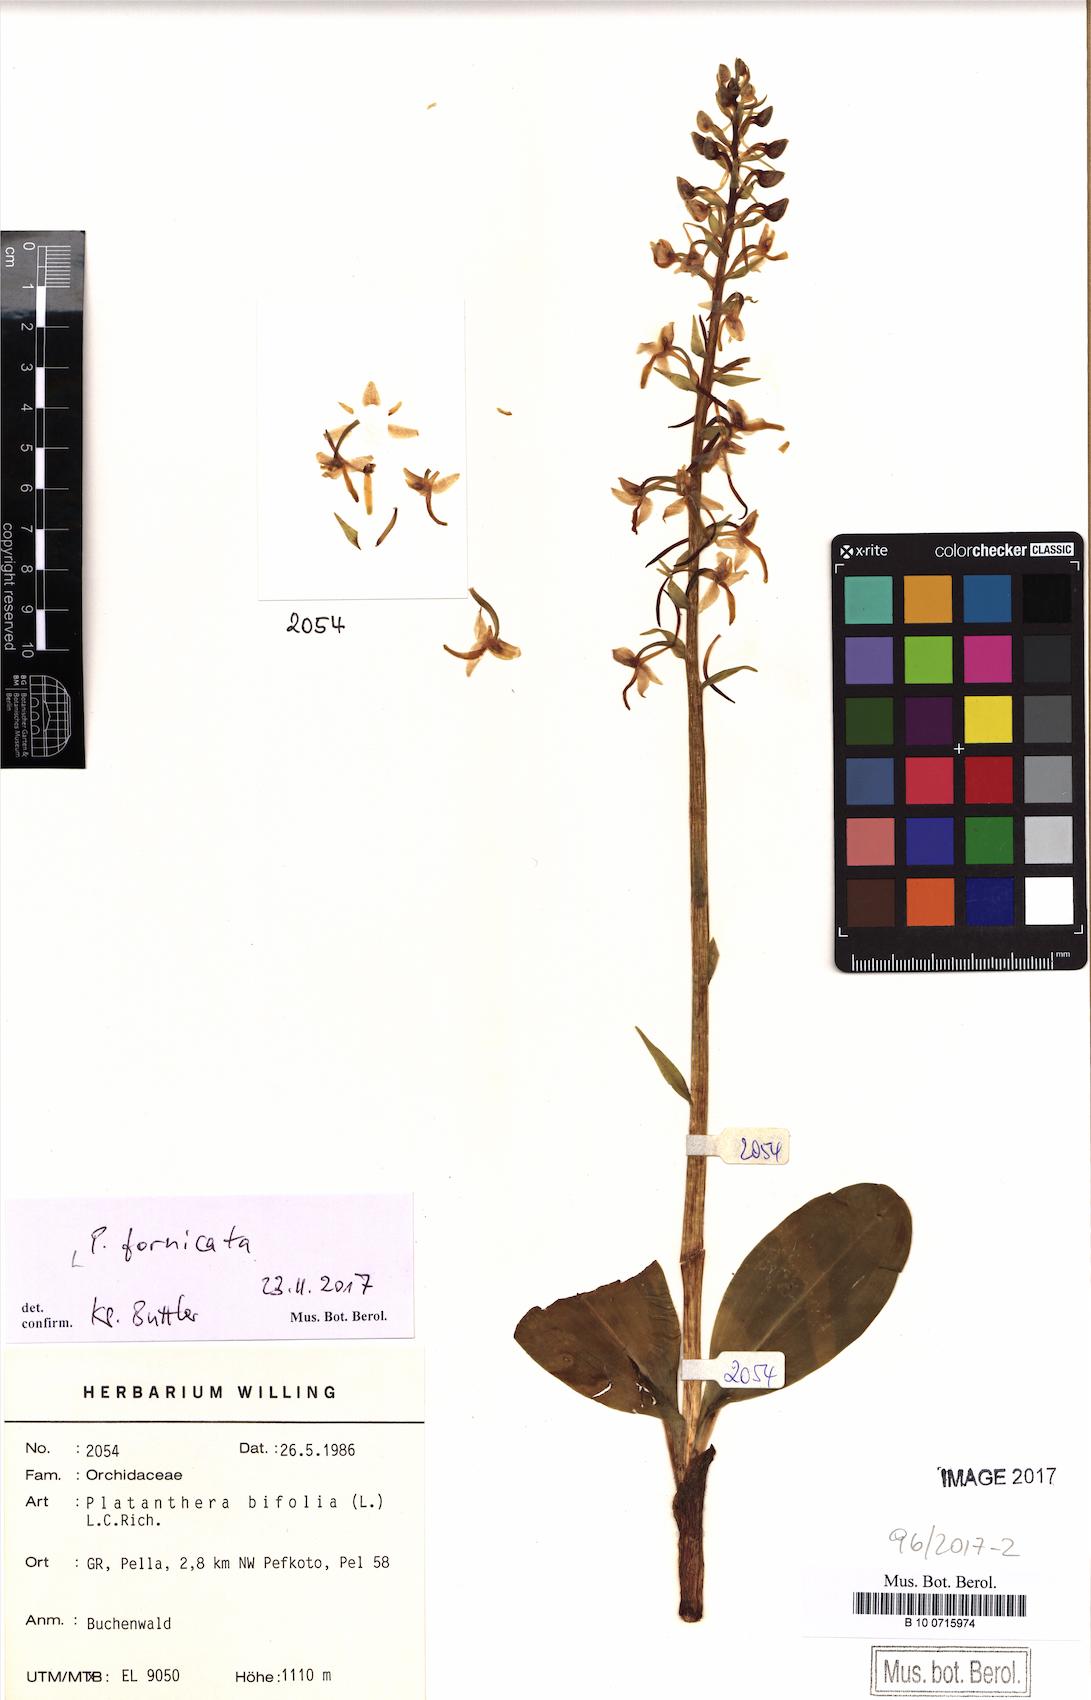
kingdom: Plantae
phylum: Tracheophyta
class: Liliopsida
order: Asparagales
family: Orchidaceae
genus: Platanthera
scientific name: Platanthera bifolia
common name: Lesser butterfly-orchid
